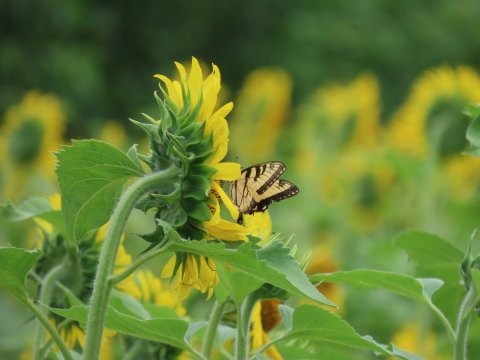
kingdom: Animalia
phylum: Arthropoda
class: Insecta
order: Lepidoptera
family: Papilionidae
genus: Pterourus
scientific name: Pterourus glaucus
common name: Eastern Tiger Swallowtail
